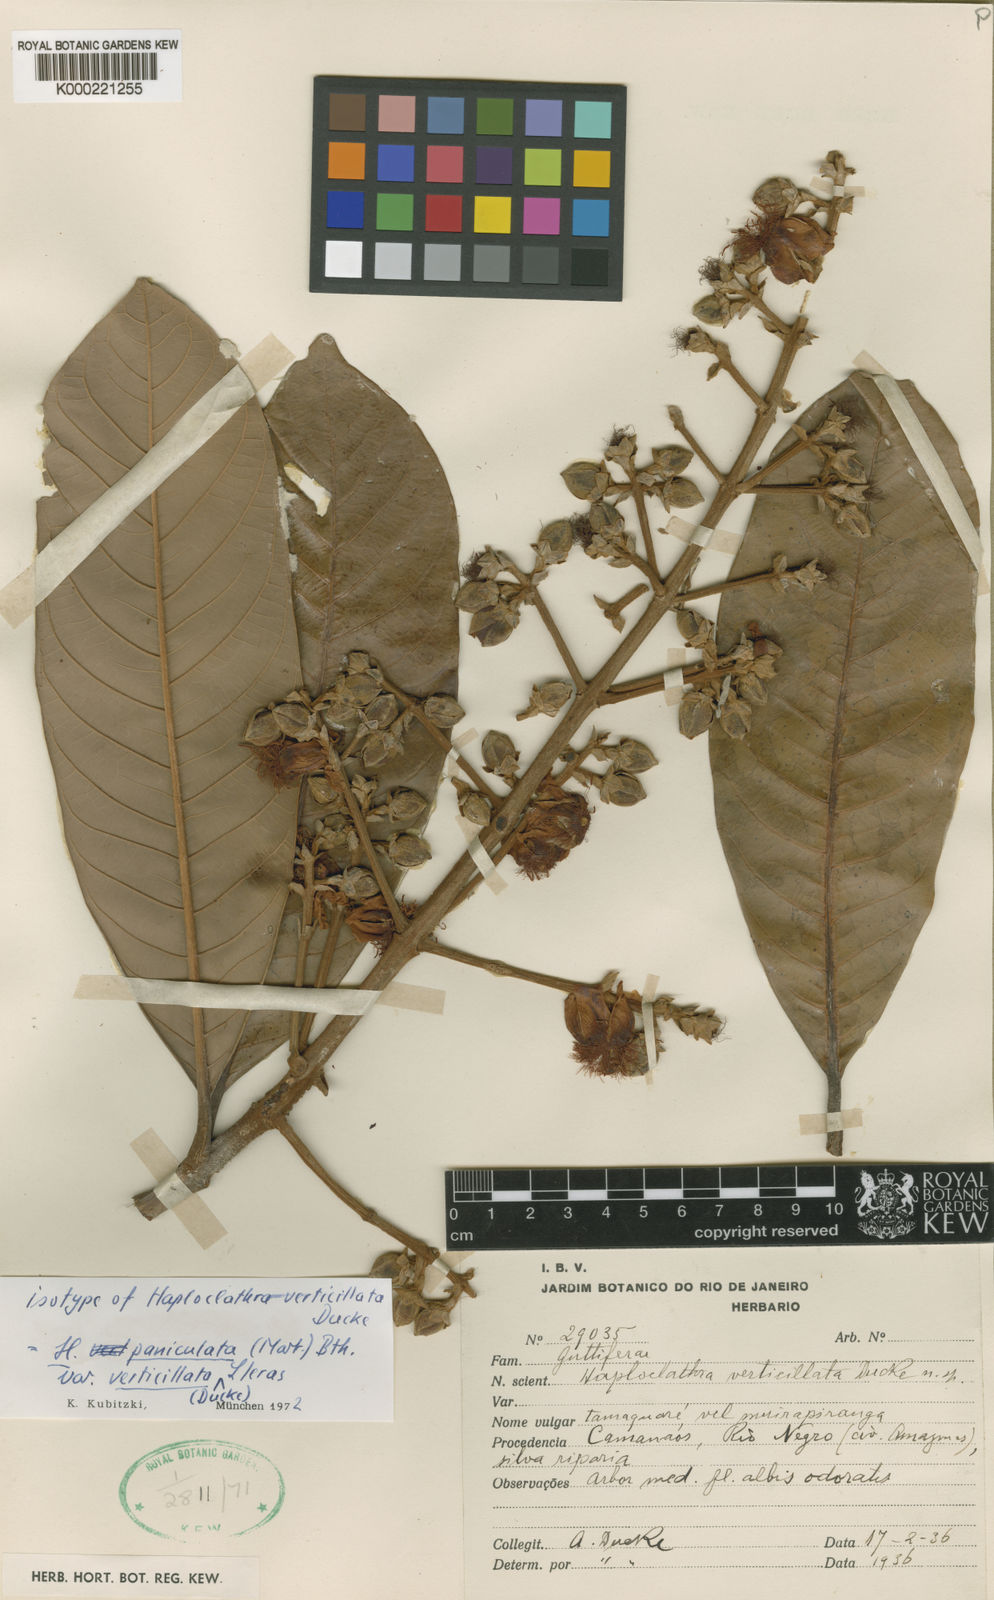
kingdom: Plantae
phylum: Tracheophyta
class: Magnoliopsida
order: Malpighiales
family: Calophyllaceae
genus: Haploclathra
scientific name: Haploclathra
